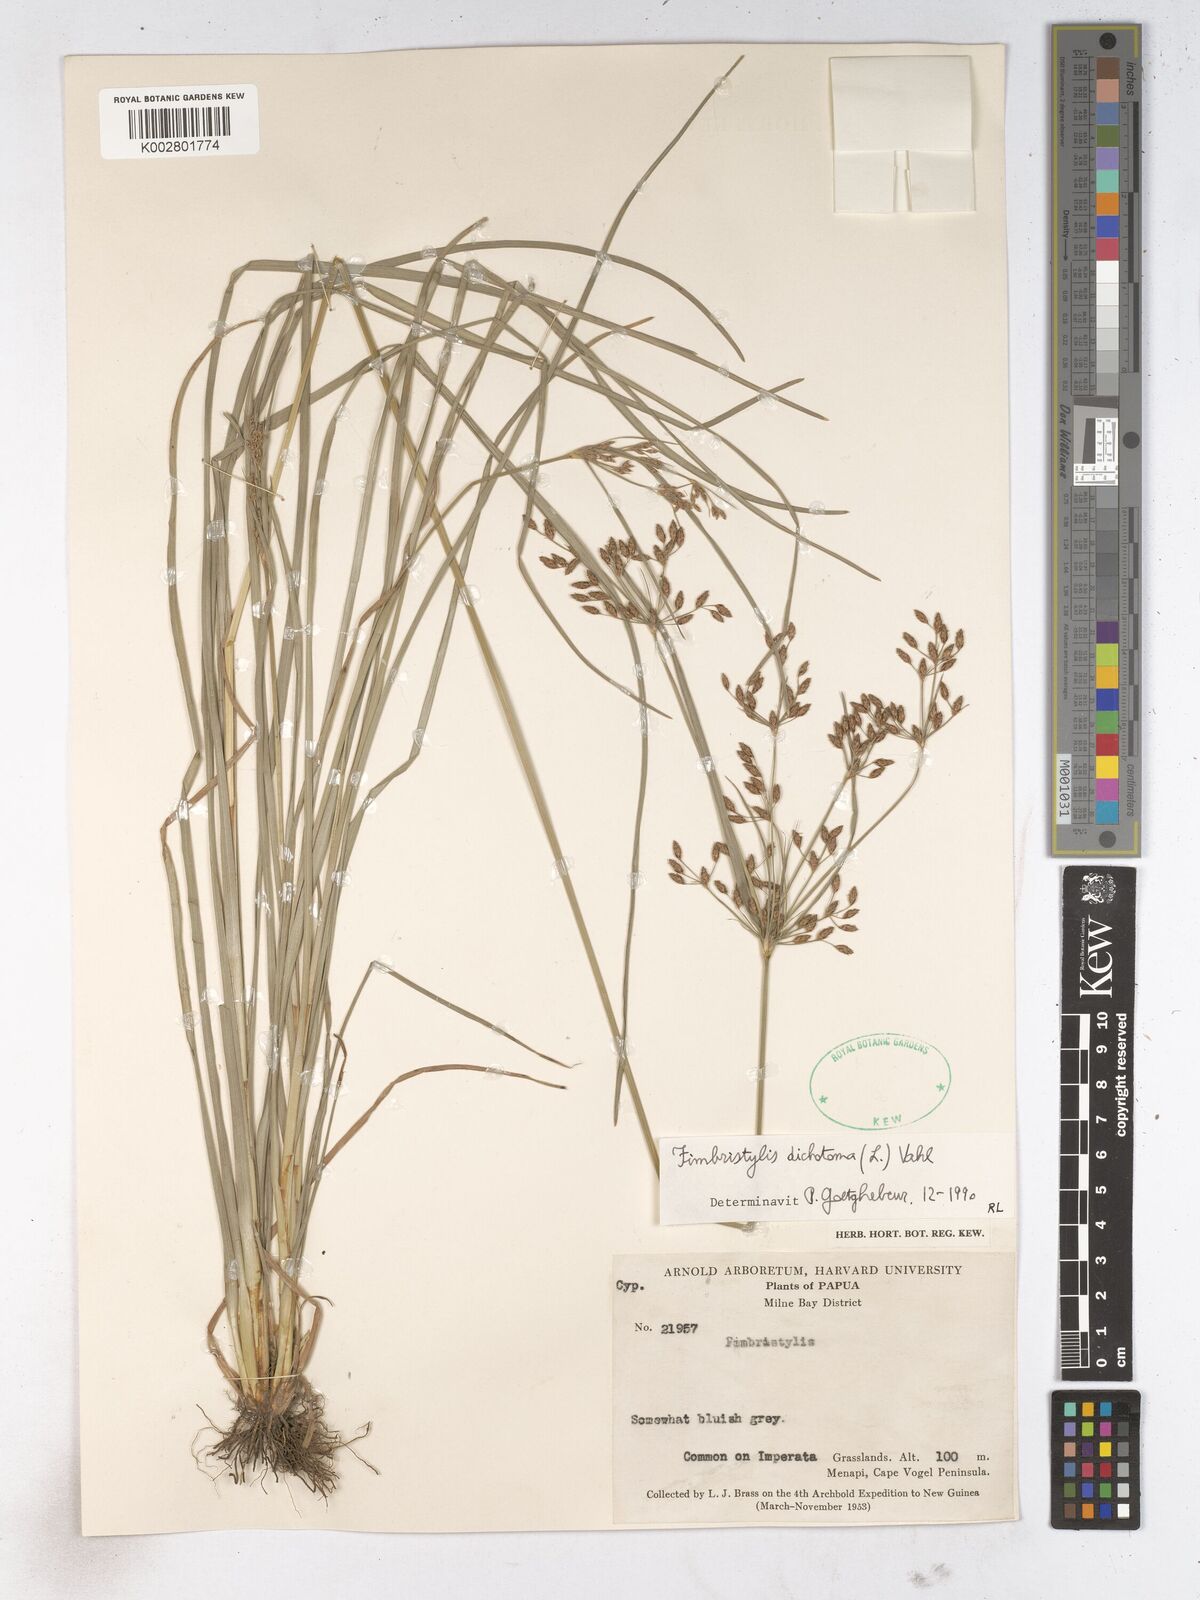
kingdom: Plantae
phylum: Tracheophyta
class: Liliopsida
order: Poales
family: Cyperaceae
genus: Fimbristylis
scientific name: Fimbristylis dichotoma
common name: Forked fimbry
